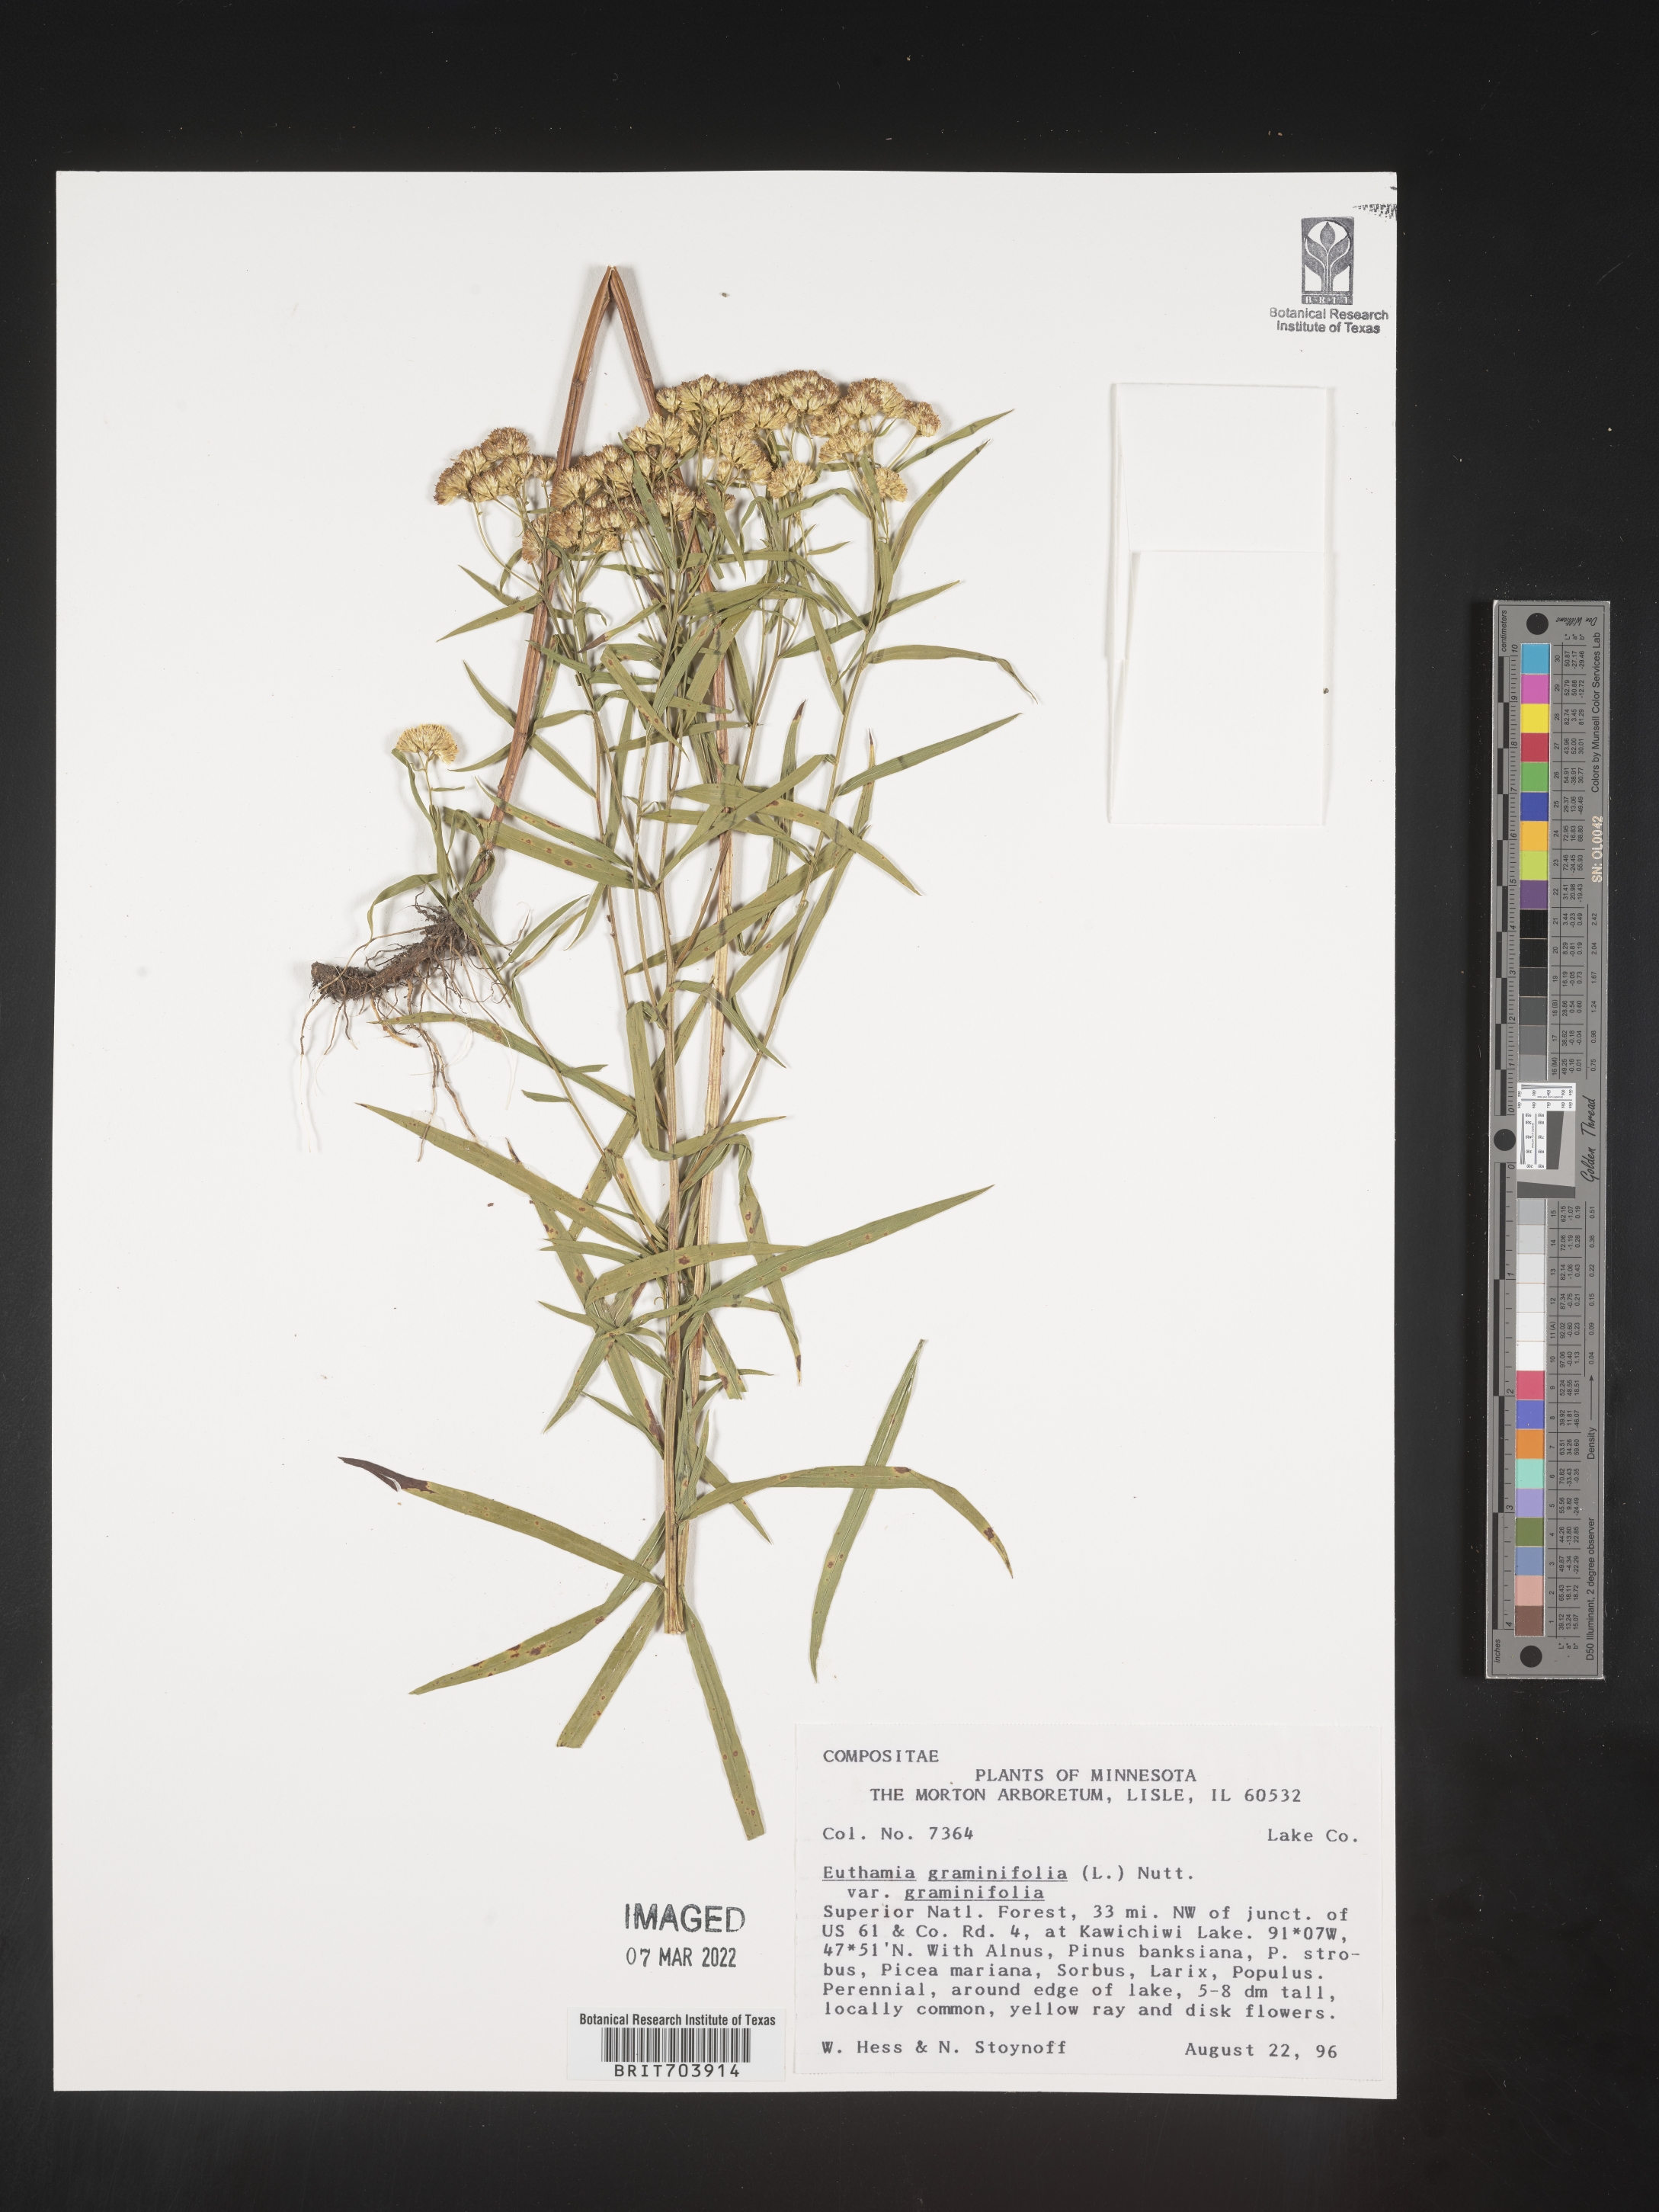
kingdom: Plantae
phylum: Tracheophyta
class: Magnoliopsida
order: Asterales
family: Asteraceae
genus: Euthamia
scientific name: Euthamia graminifolia
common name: Common goldentop
